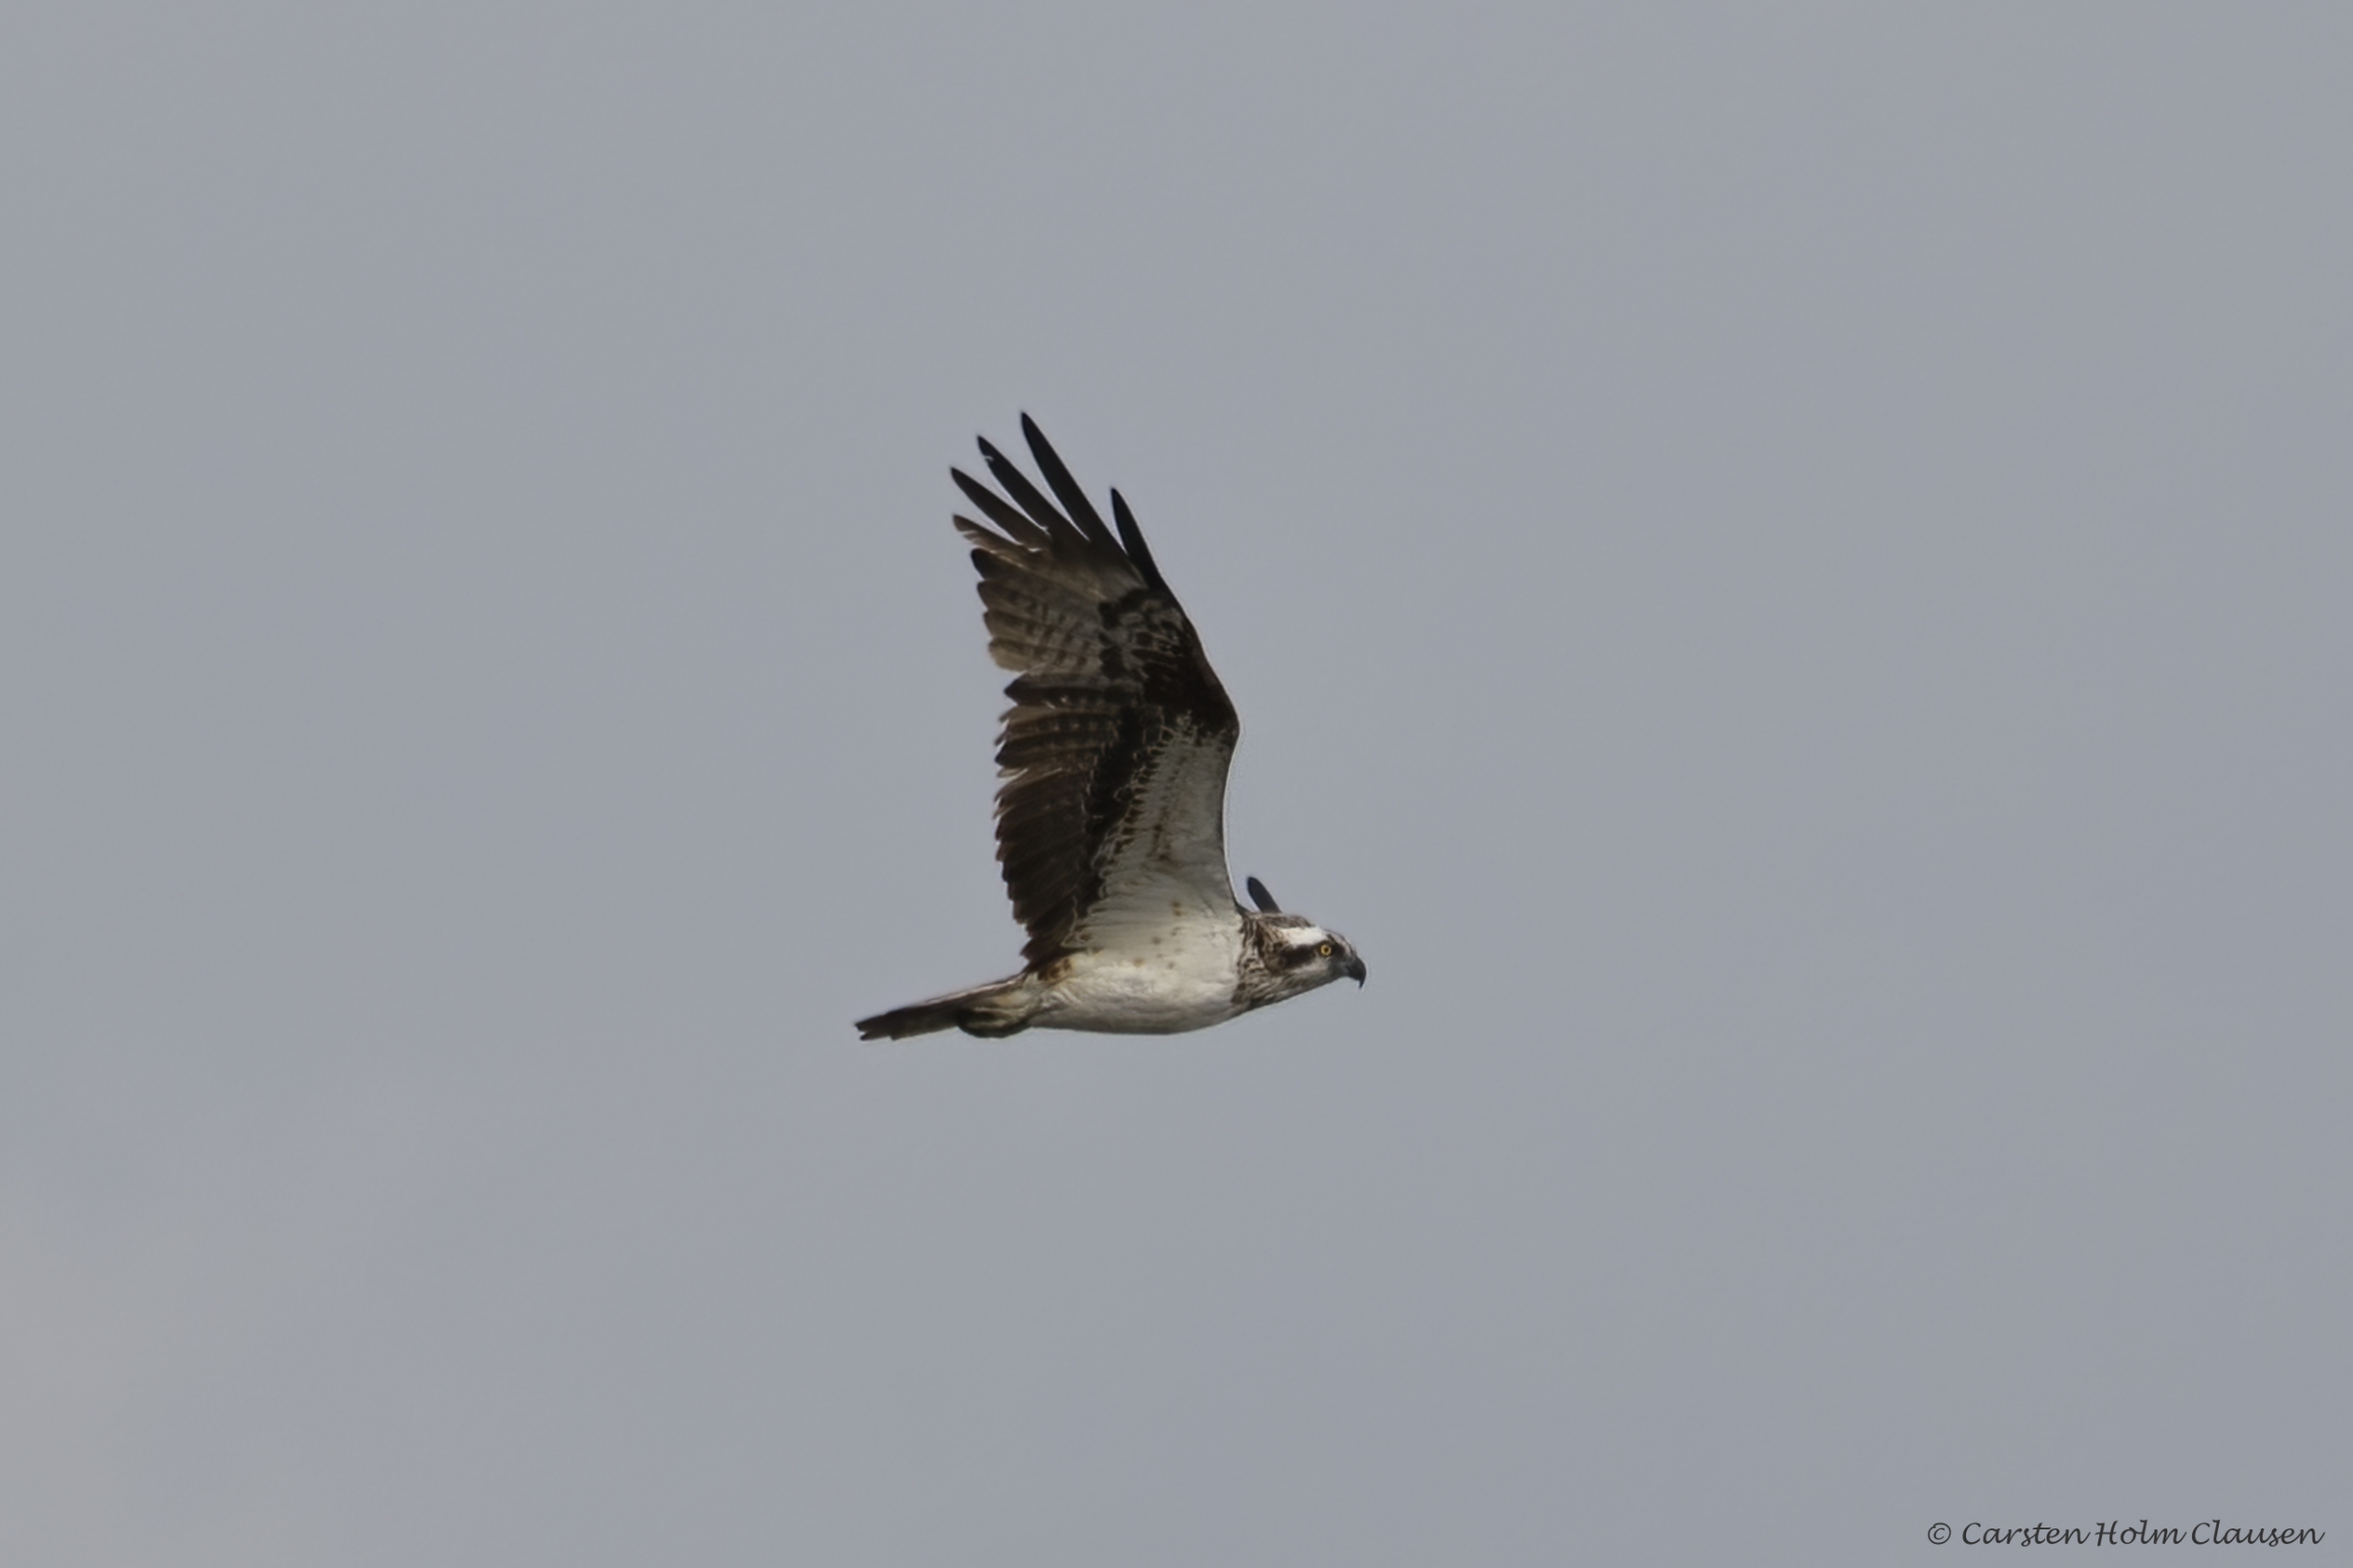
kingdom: Animalia
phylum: Chordata
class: Aves
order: Accipitriformes
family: Pandionidae
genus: Pandion
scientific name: Pandion haliaetus
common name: Fiskeørn
